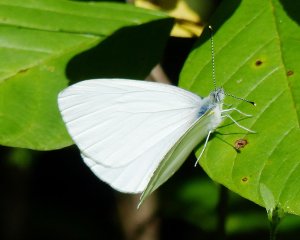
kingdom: Animalia
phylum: Arthropoda
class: Insecta
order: Lepidoptera
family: Pieridae
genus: Pieris
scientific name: Pieris oleracea
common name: Mustard White
